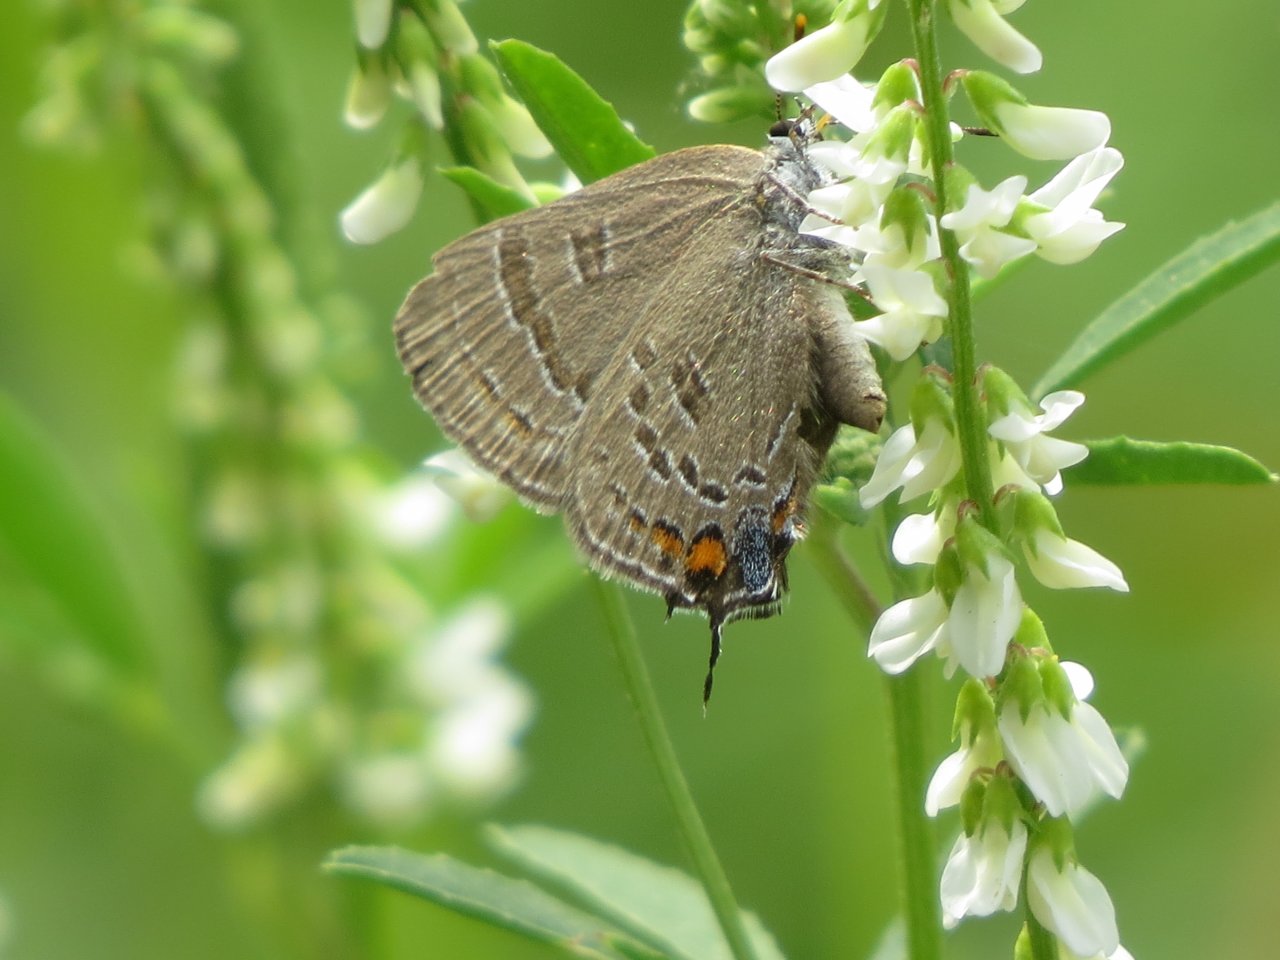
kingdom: Animalia
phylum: Arthropoda
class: Insecta
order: Lepidoptera
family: Lycaenidae
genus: Satyrium
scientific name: Satyrium calanus
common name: Banded Hairstreak
